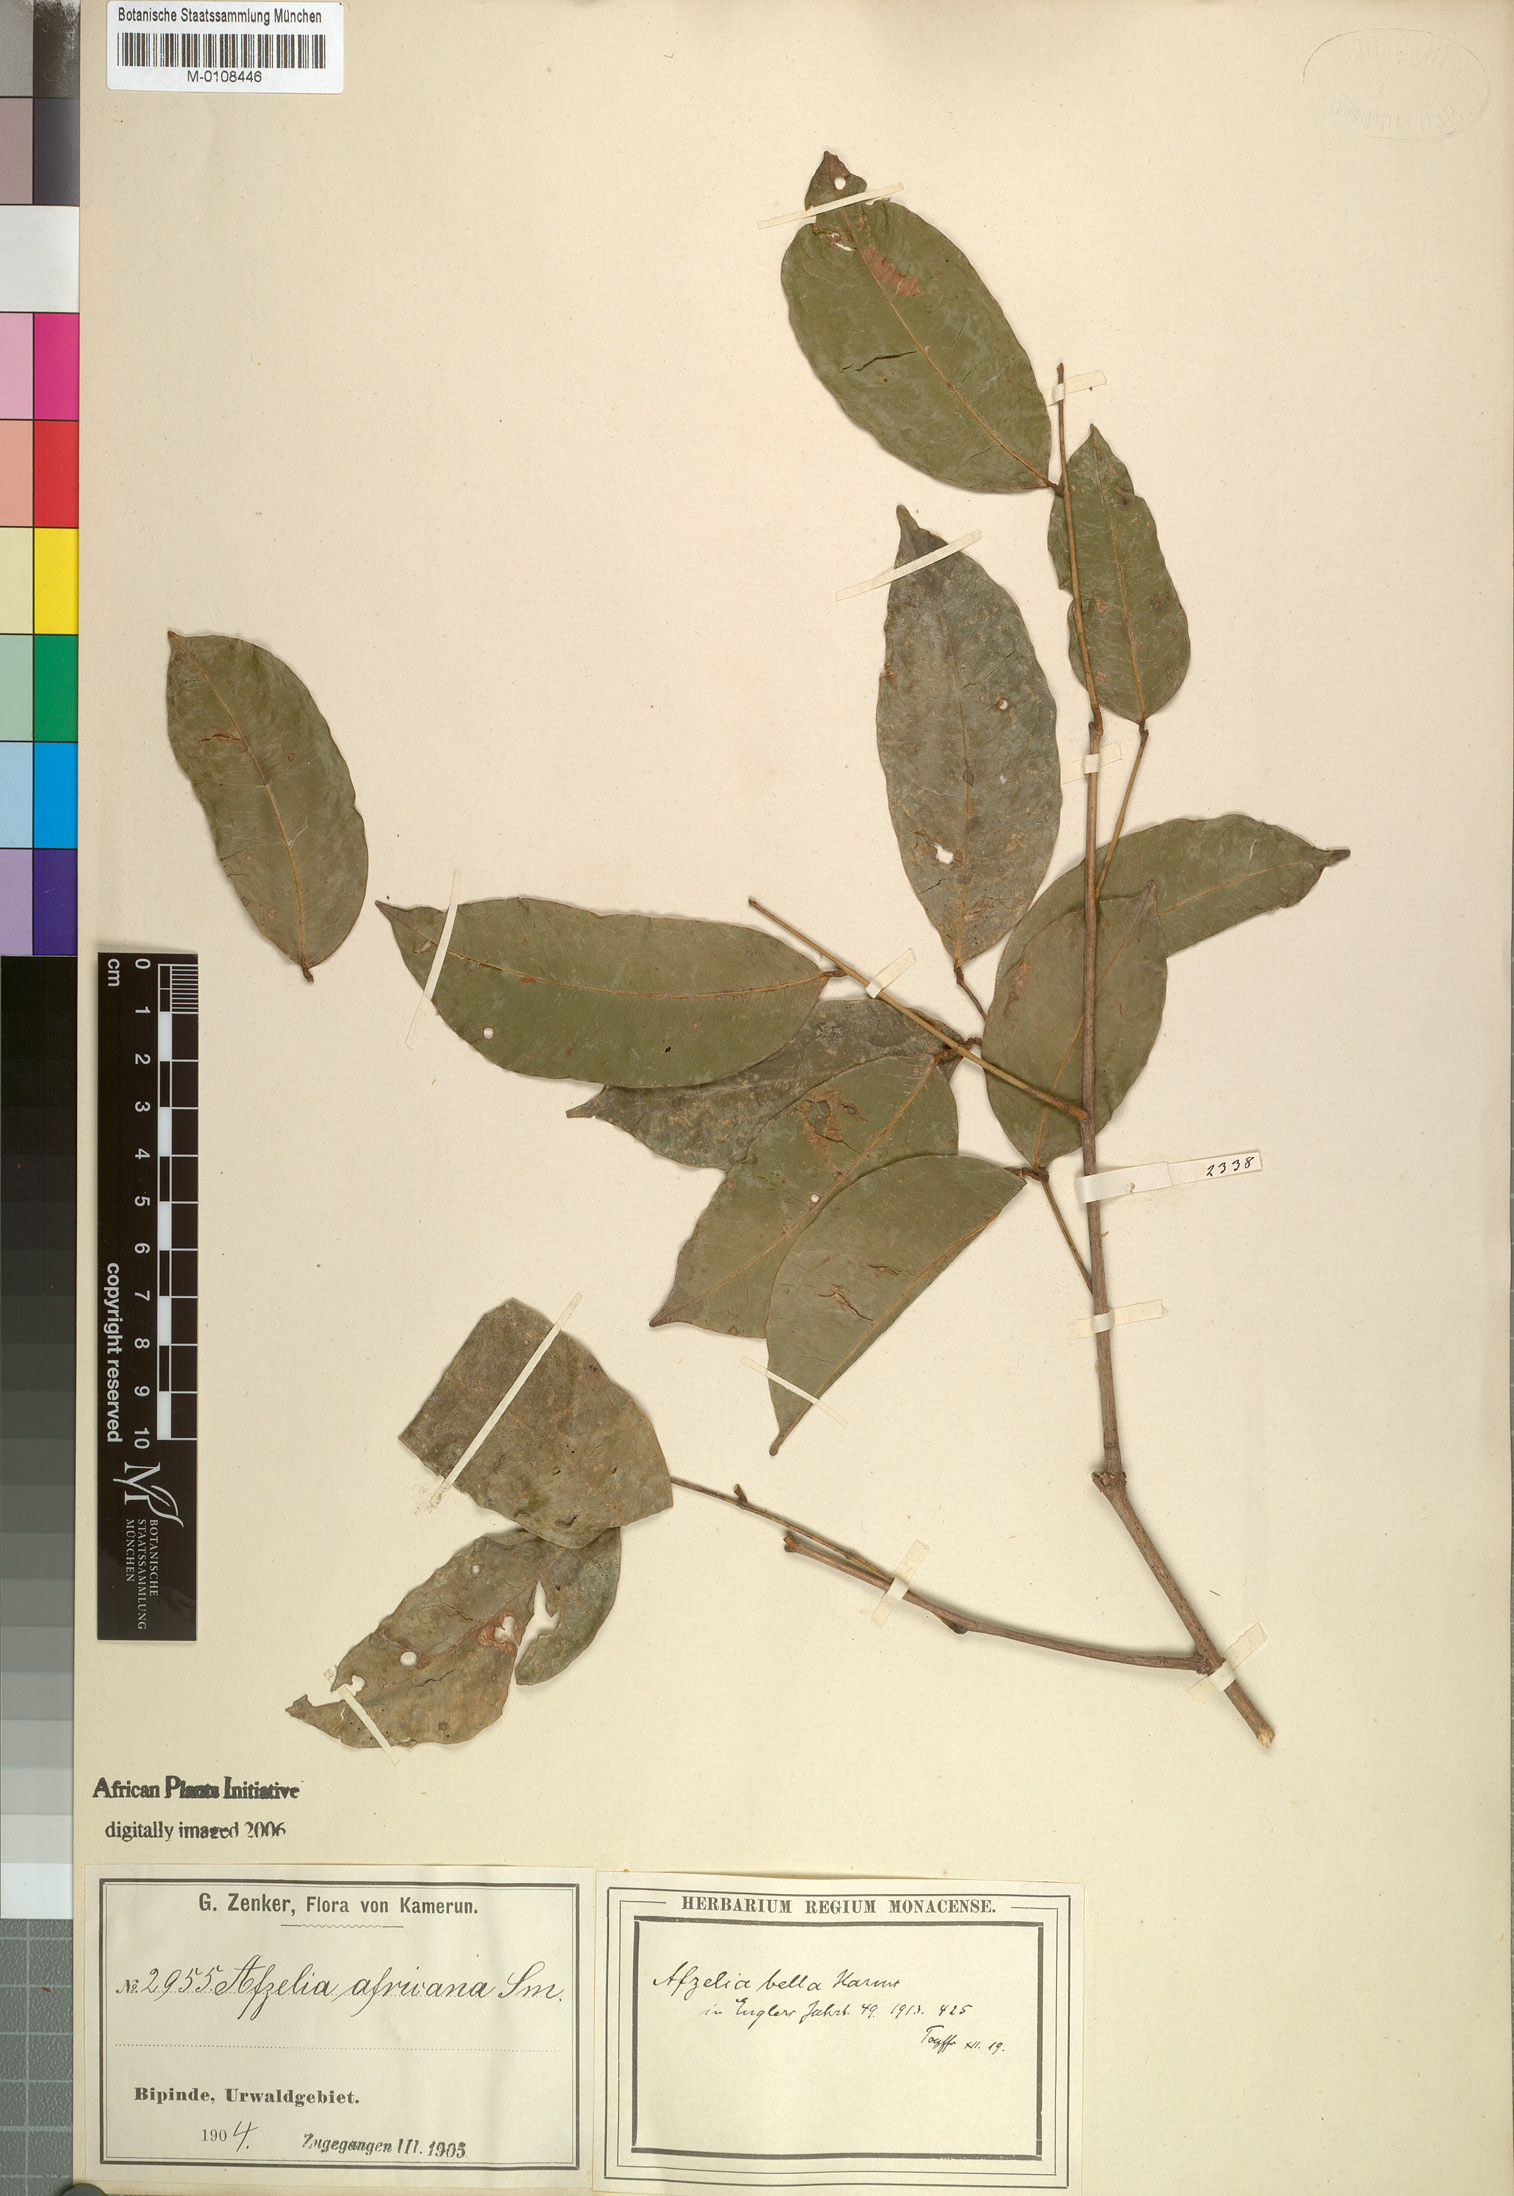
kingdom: Plantae
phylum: Tracheophyta
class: Magnoliopsida
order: Fabales
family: Fabaceae
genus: Afzelia
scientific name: Afzelia bella
